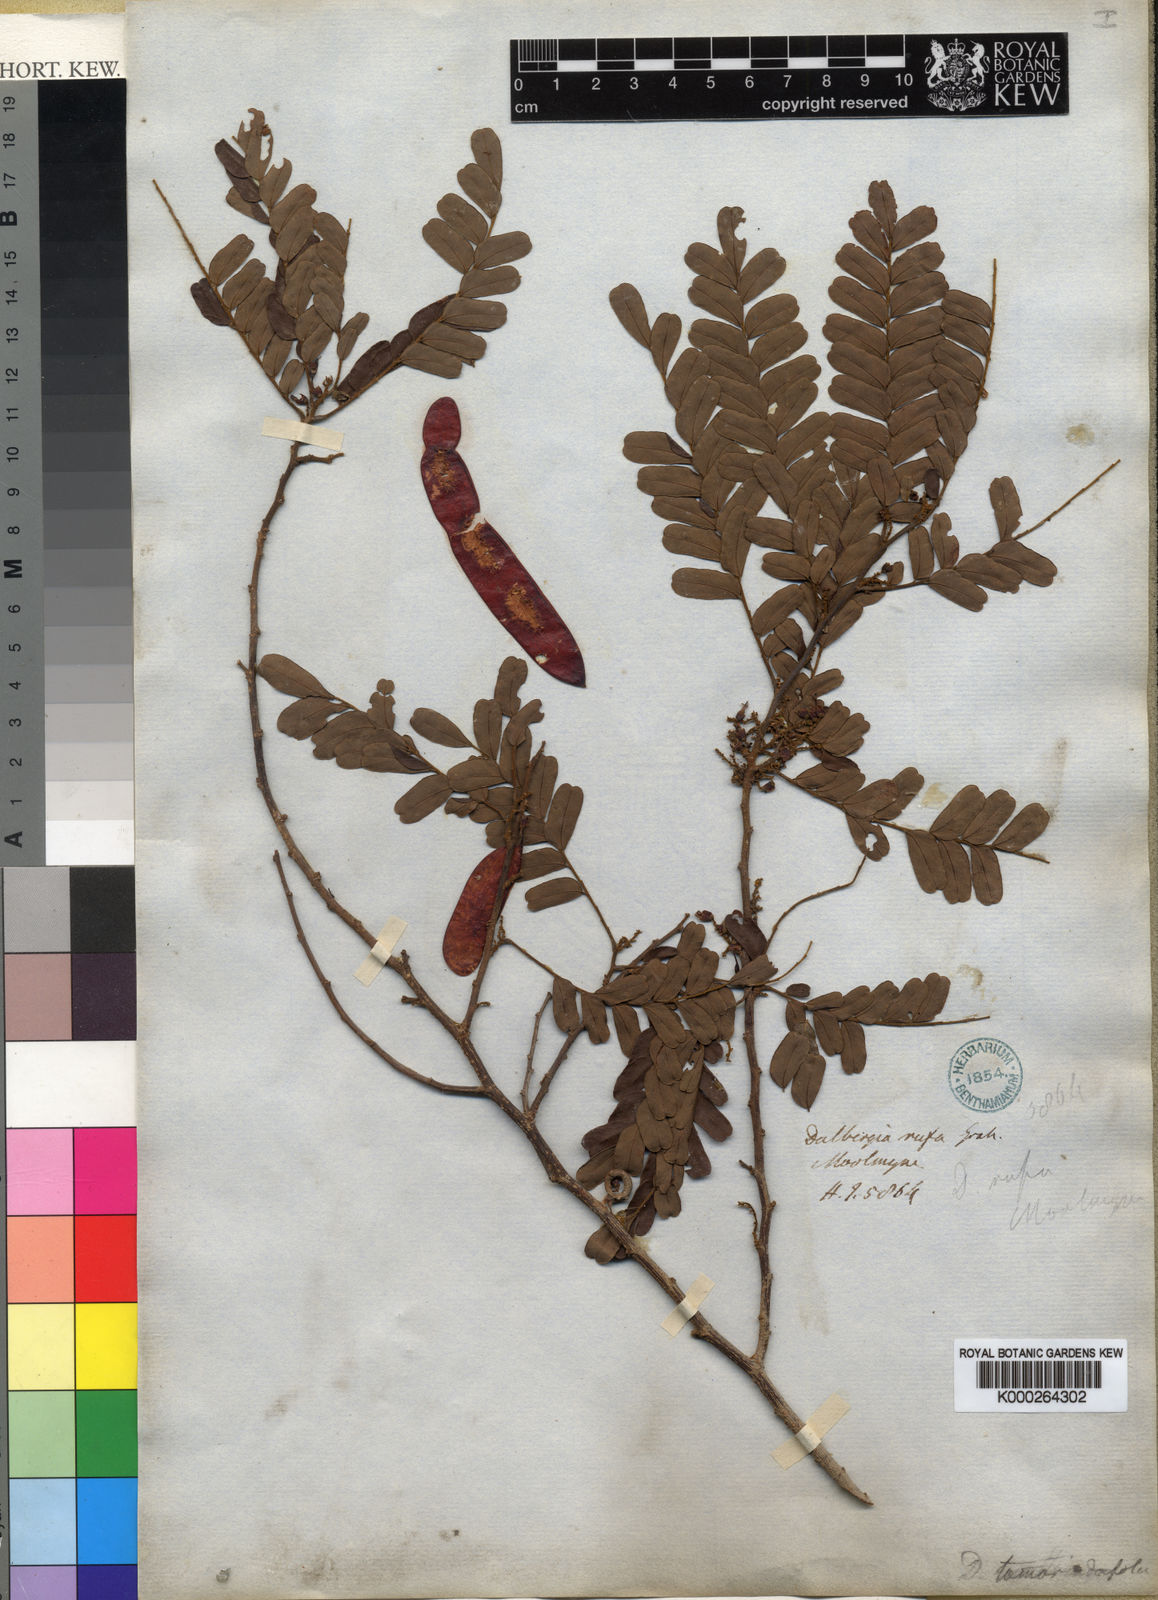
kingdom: Plantae
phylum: Tracheophyta
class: Magnoliopsida
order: Fabales
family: Fabaceae
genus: Dalbergia
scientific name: Dalbergia
